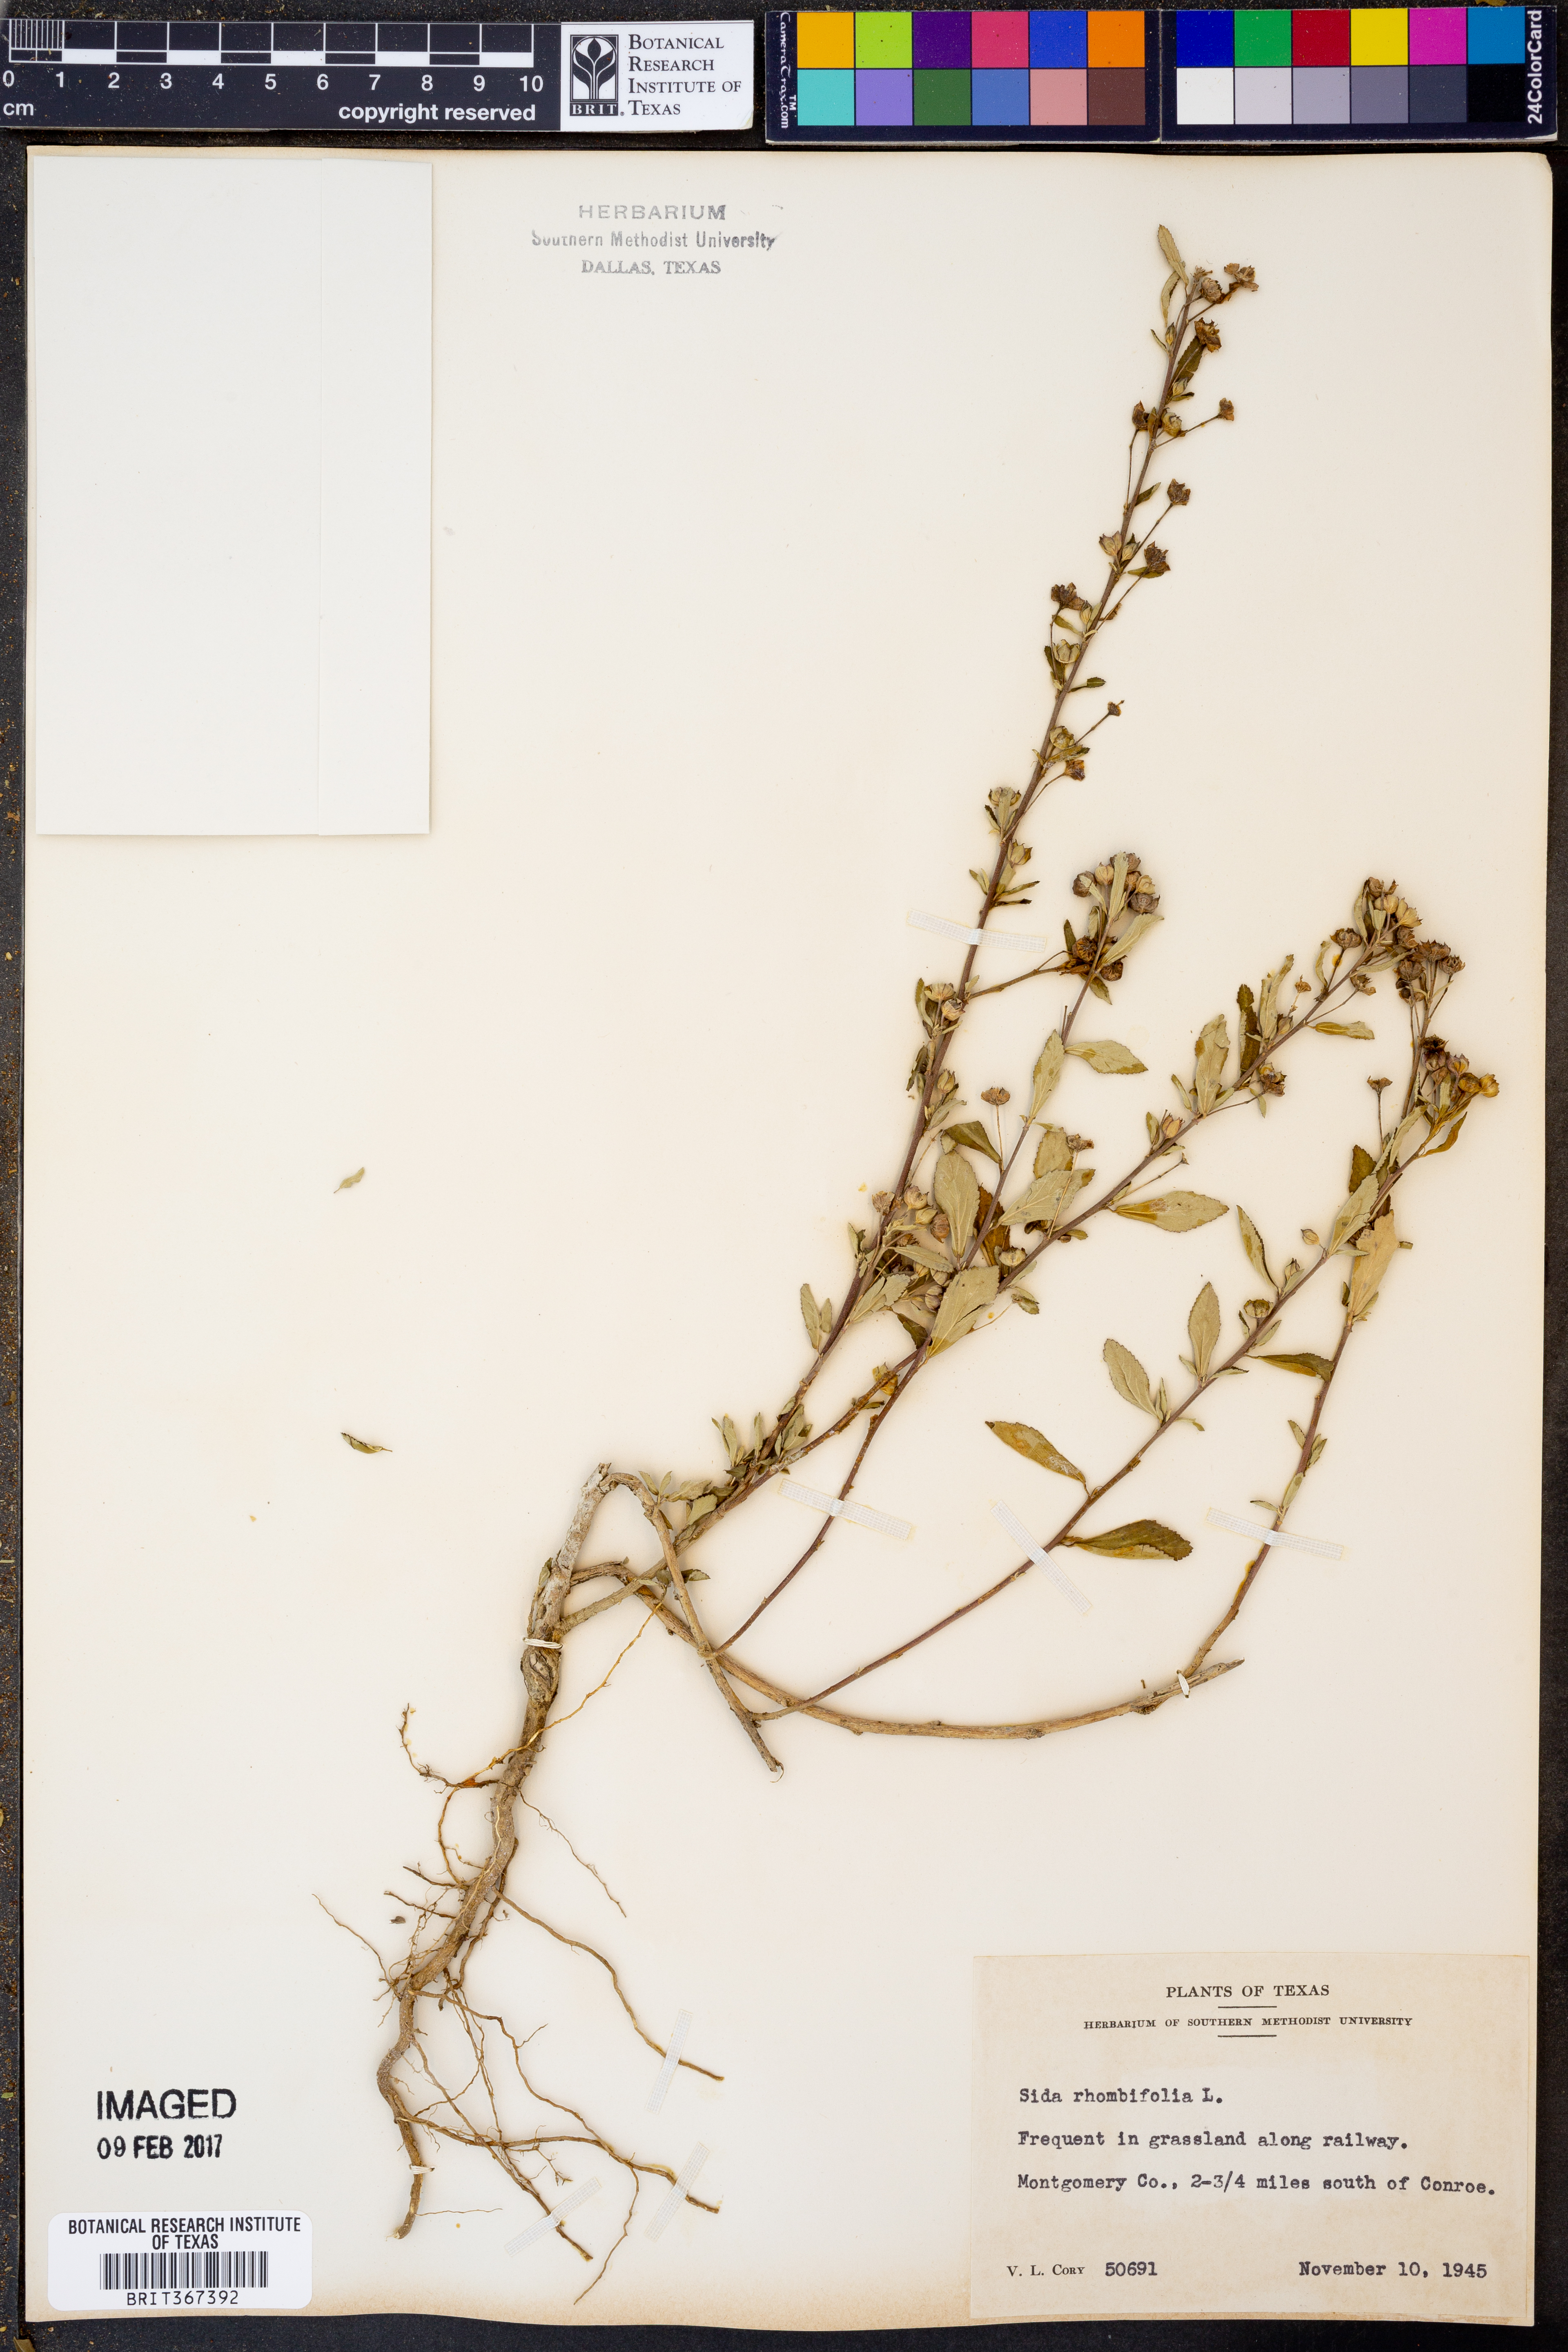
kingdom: Plantae
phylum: Tracheophyta
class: Magnoliopsida
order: Malvales
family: Malvaceae
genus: Sida
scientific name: Sida rhombifolia
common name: Queensland-hemp
